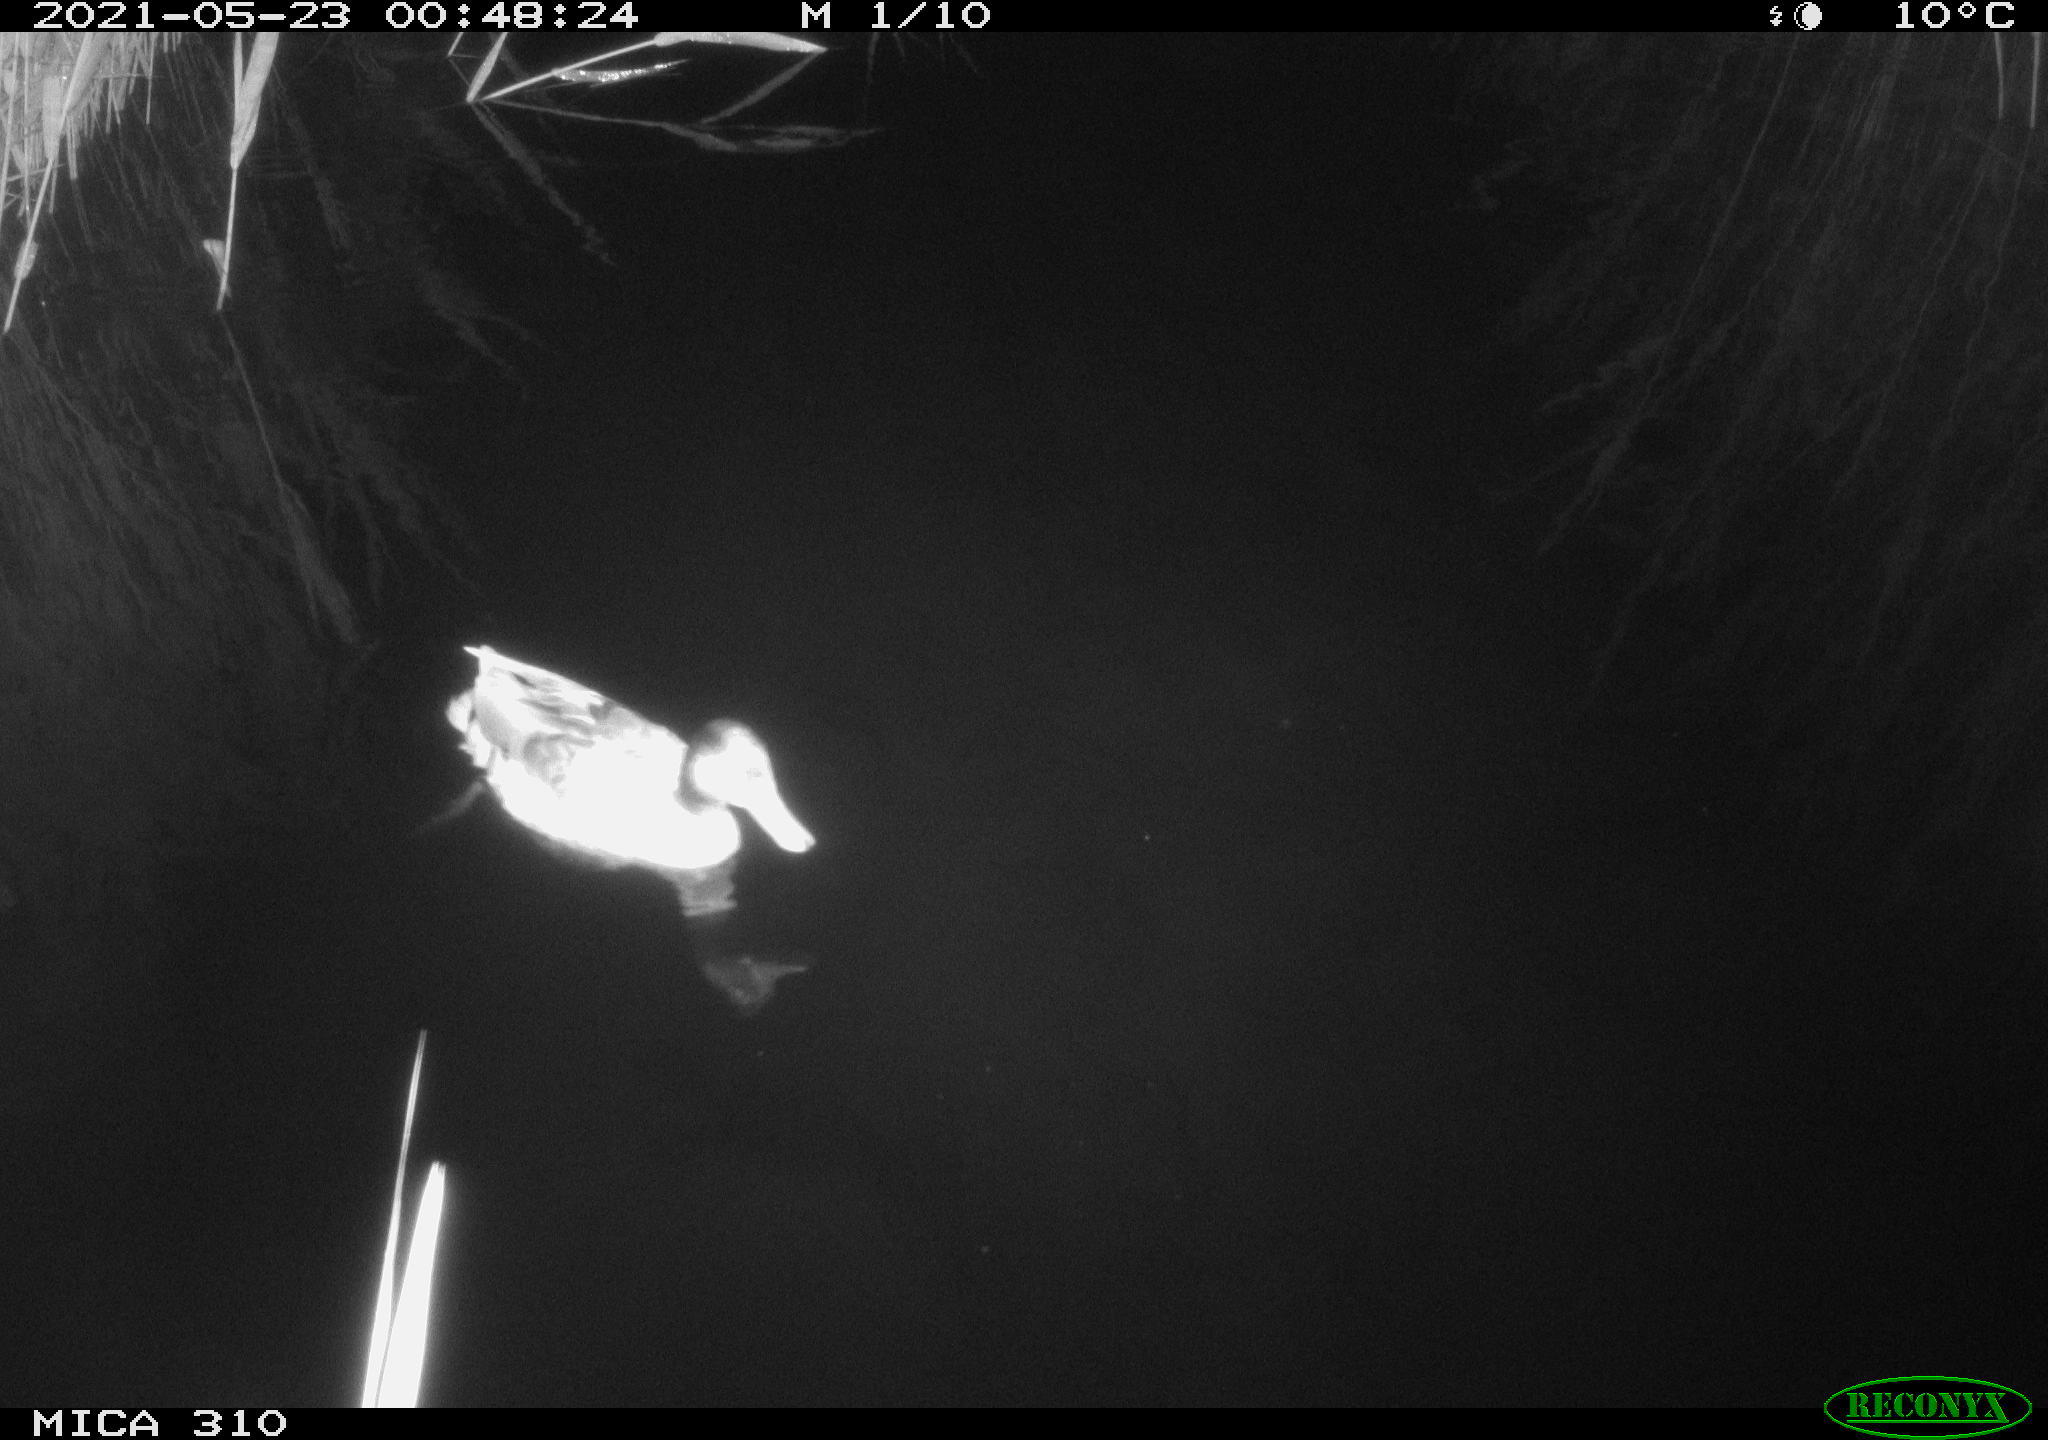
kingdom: Animalia
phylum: Chordata
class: Aves
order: Anseriformes
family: Anatidae
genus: Anas
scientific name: Anas platyrhynchos
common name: Mallard
